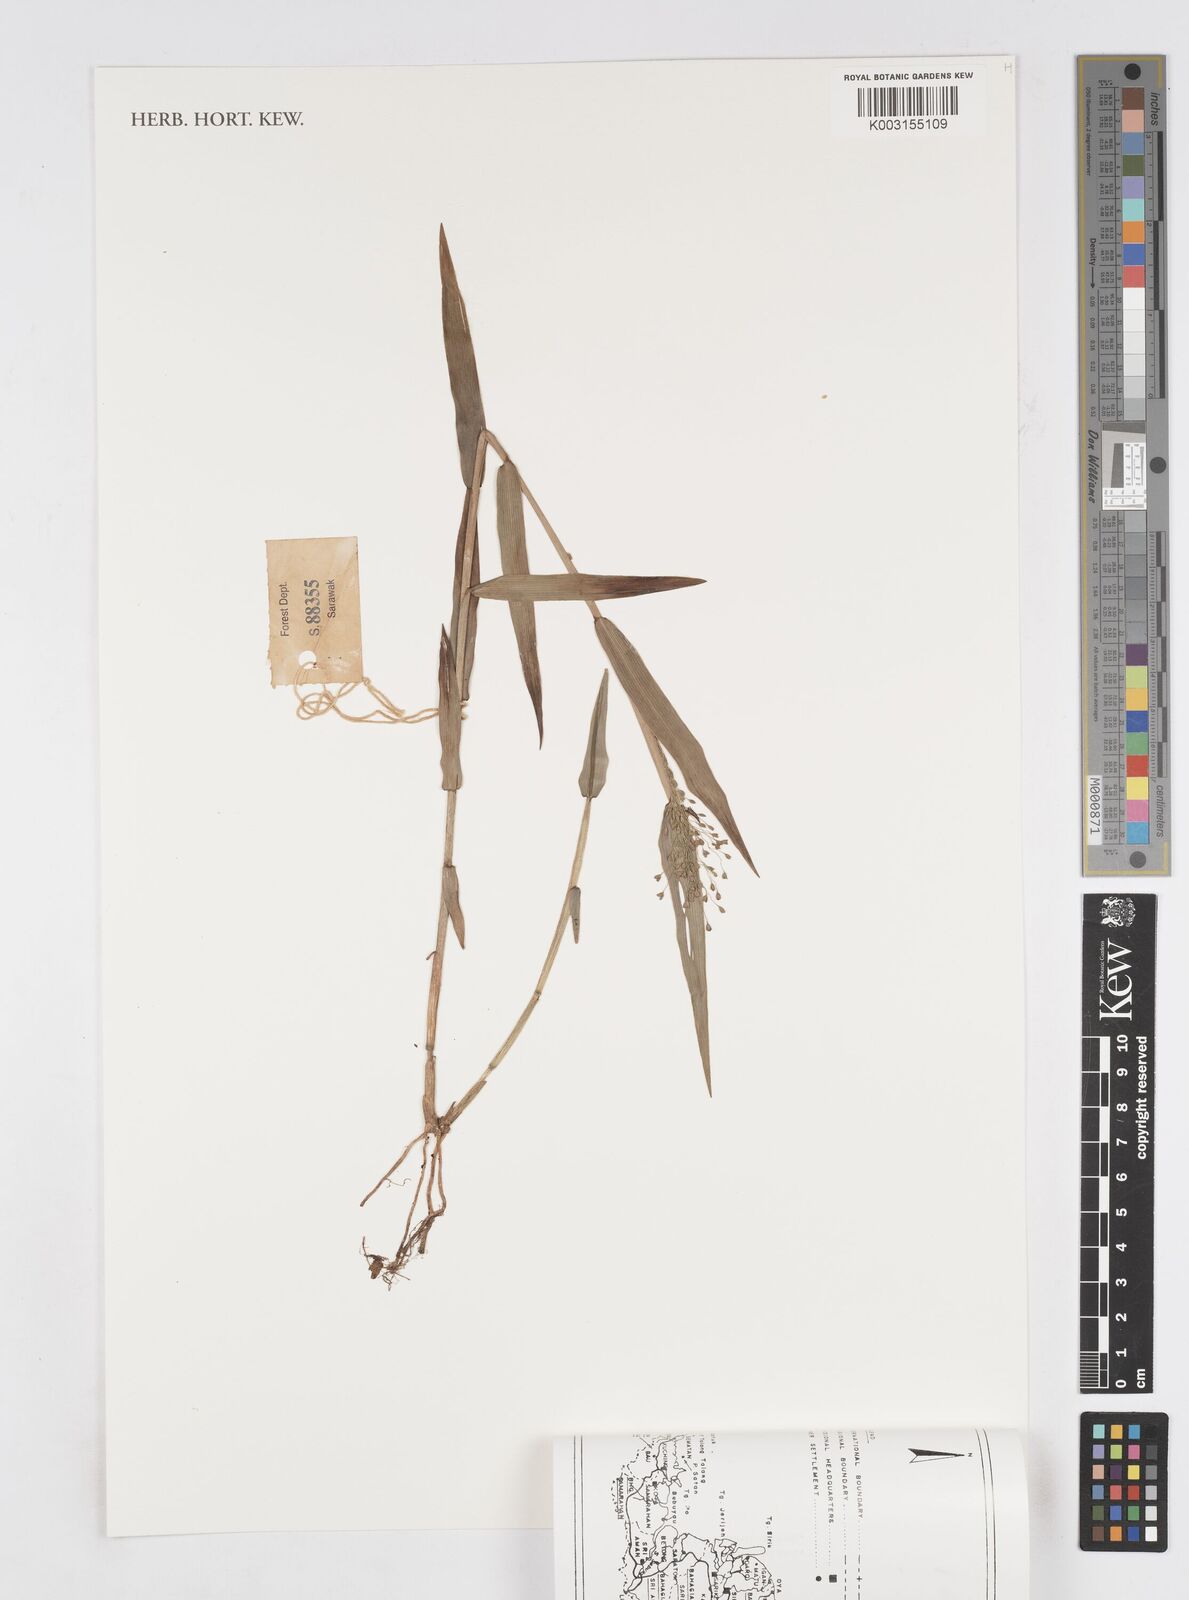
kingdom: Plantae
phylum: Tracheophyta
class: Liliopsida
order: Poales
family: Poaceae
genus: Isachne
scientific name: Isachne
